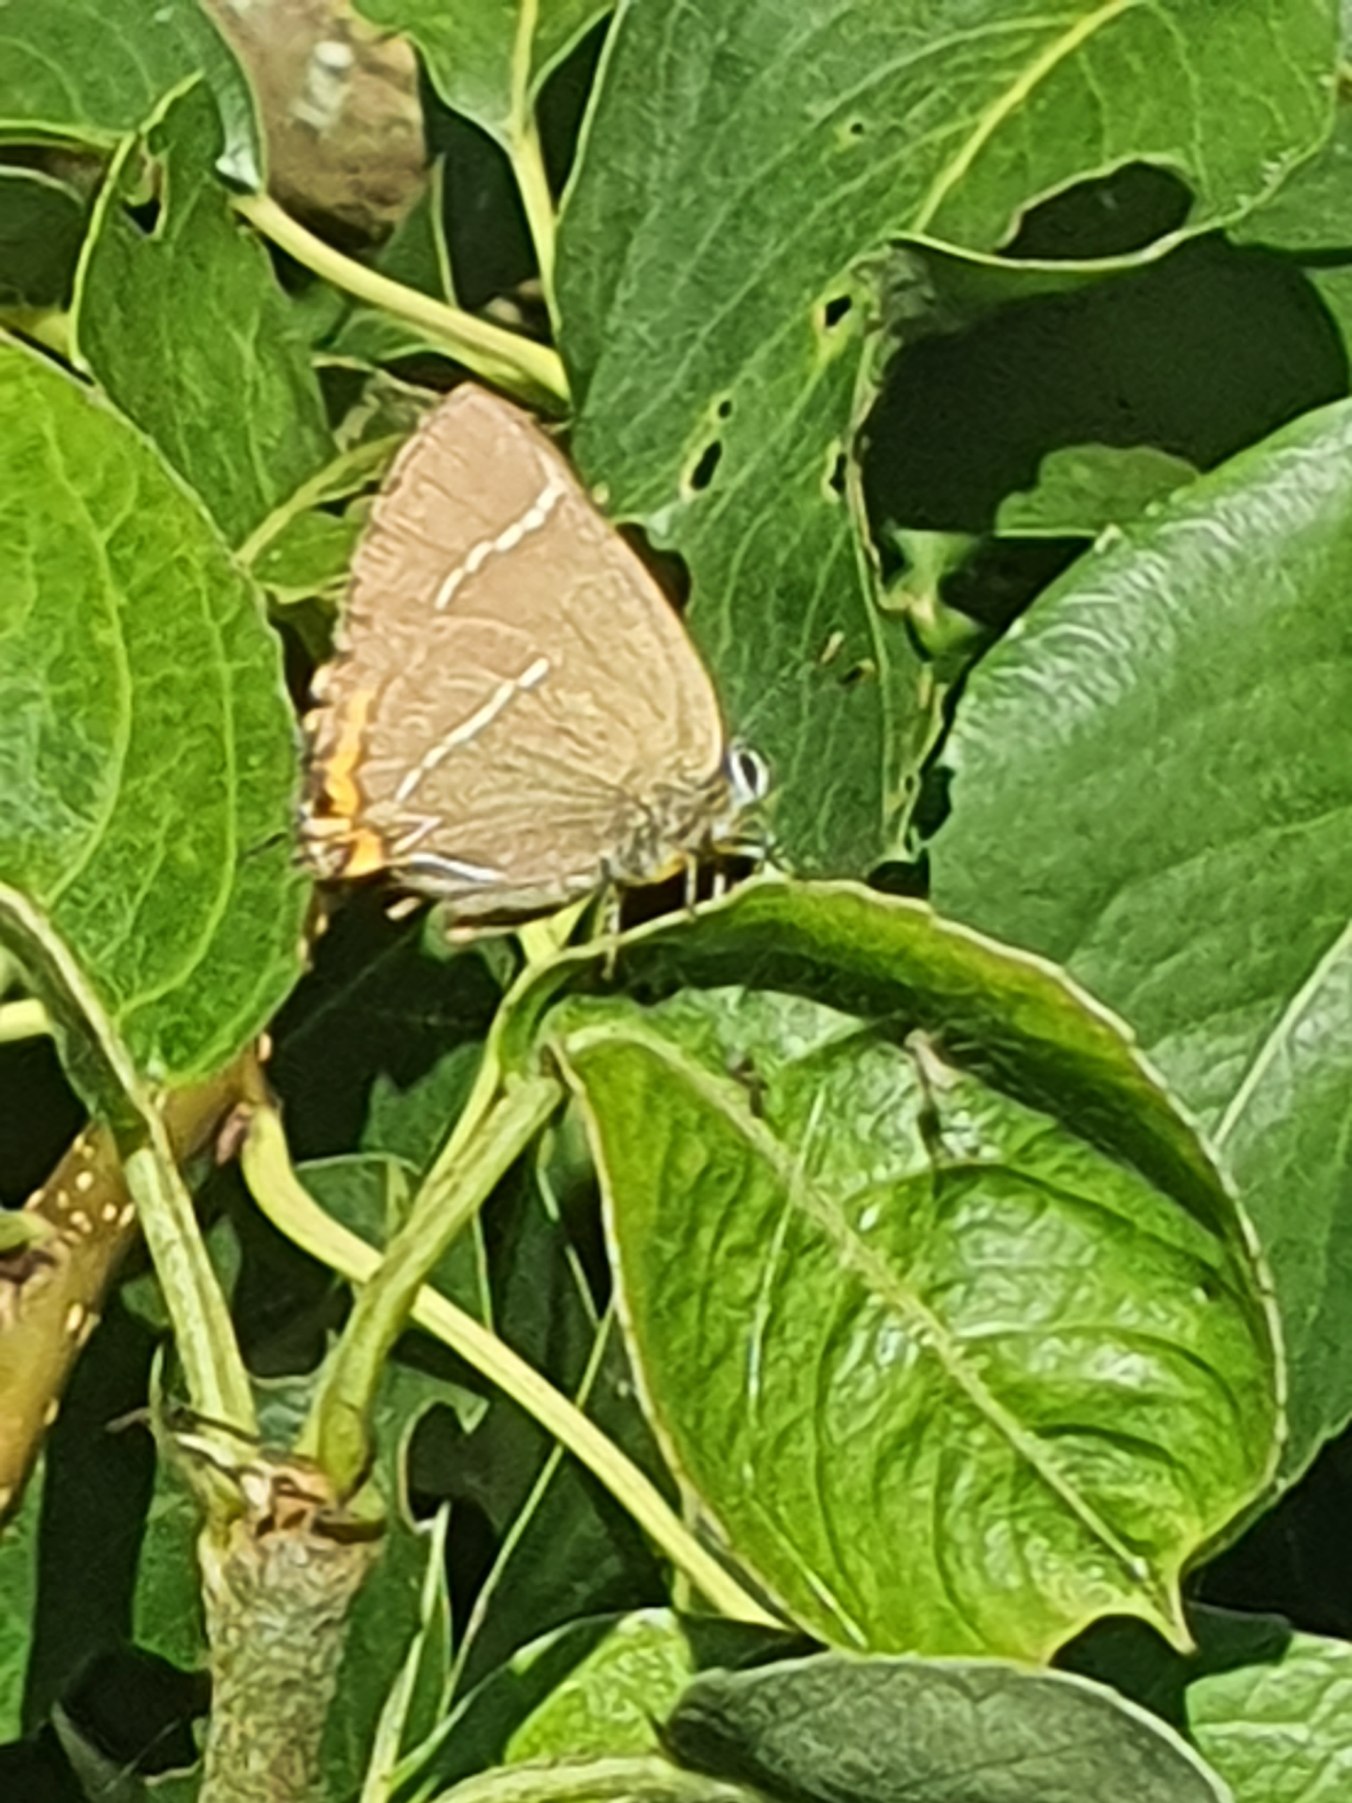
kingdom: Animalia
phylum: Arthropoda
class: Insecta
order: Lepidoptera
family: Lycaenidae
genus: Satyrium
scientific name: Satyrium w-album
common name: Det hvide W
